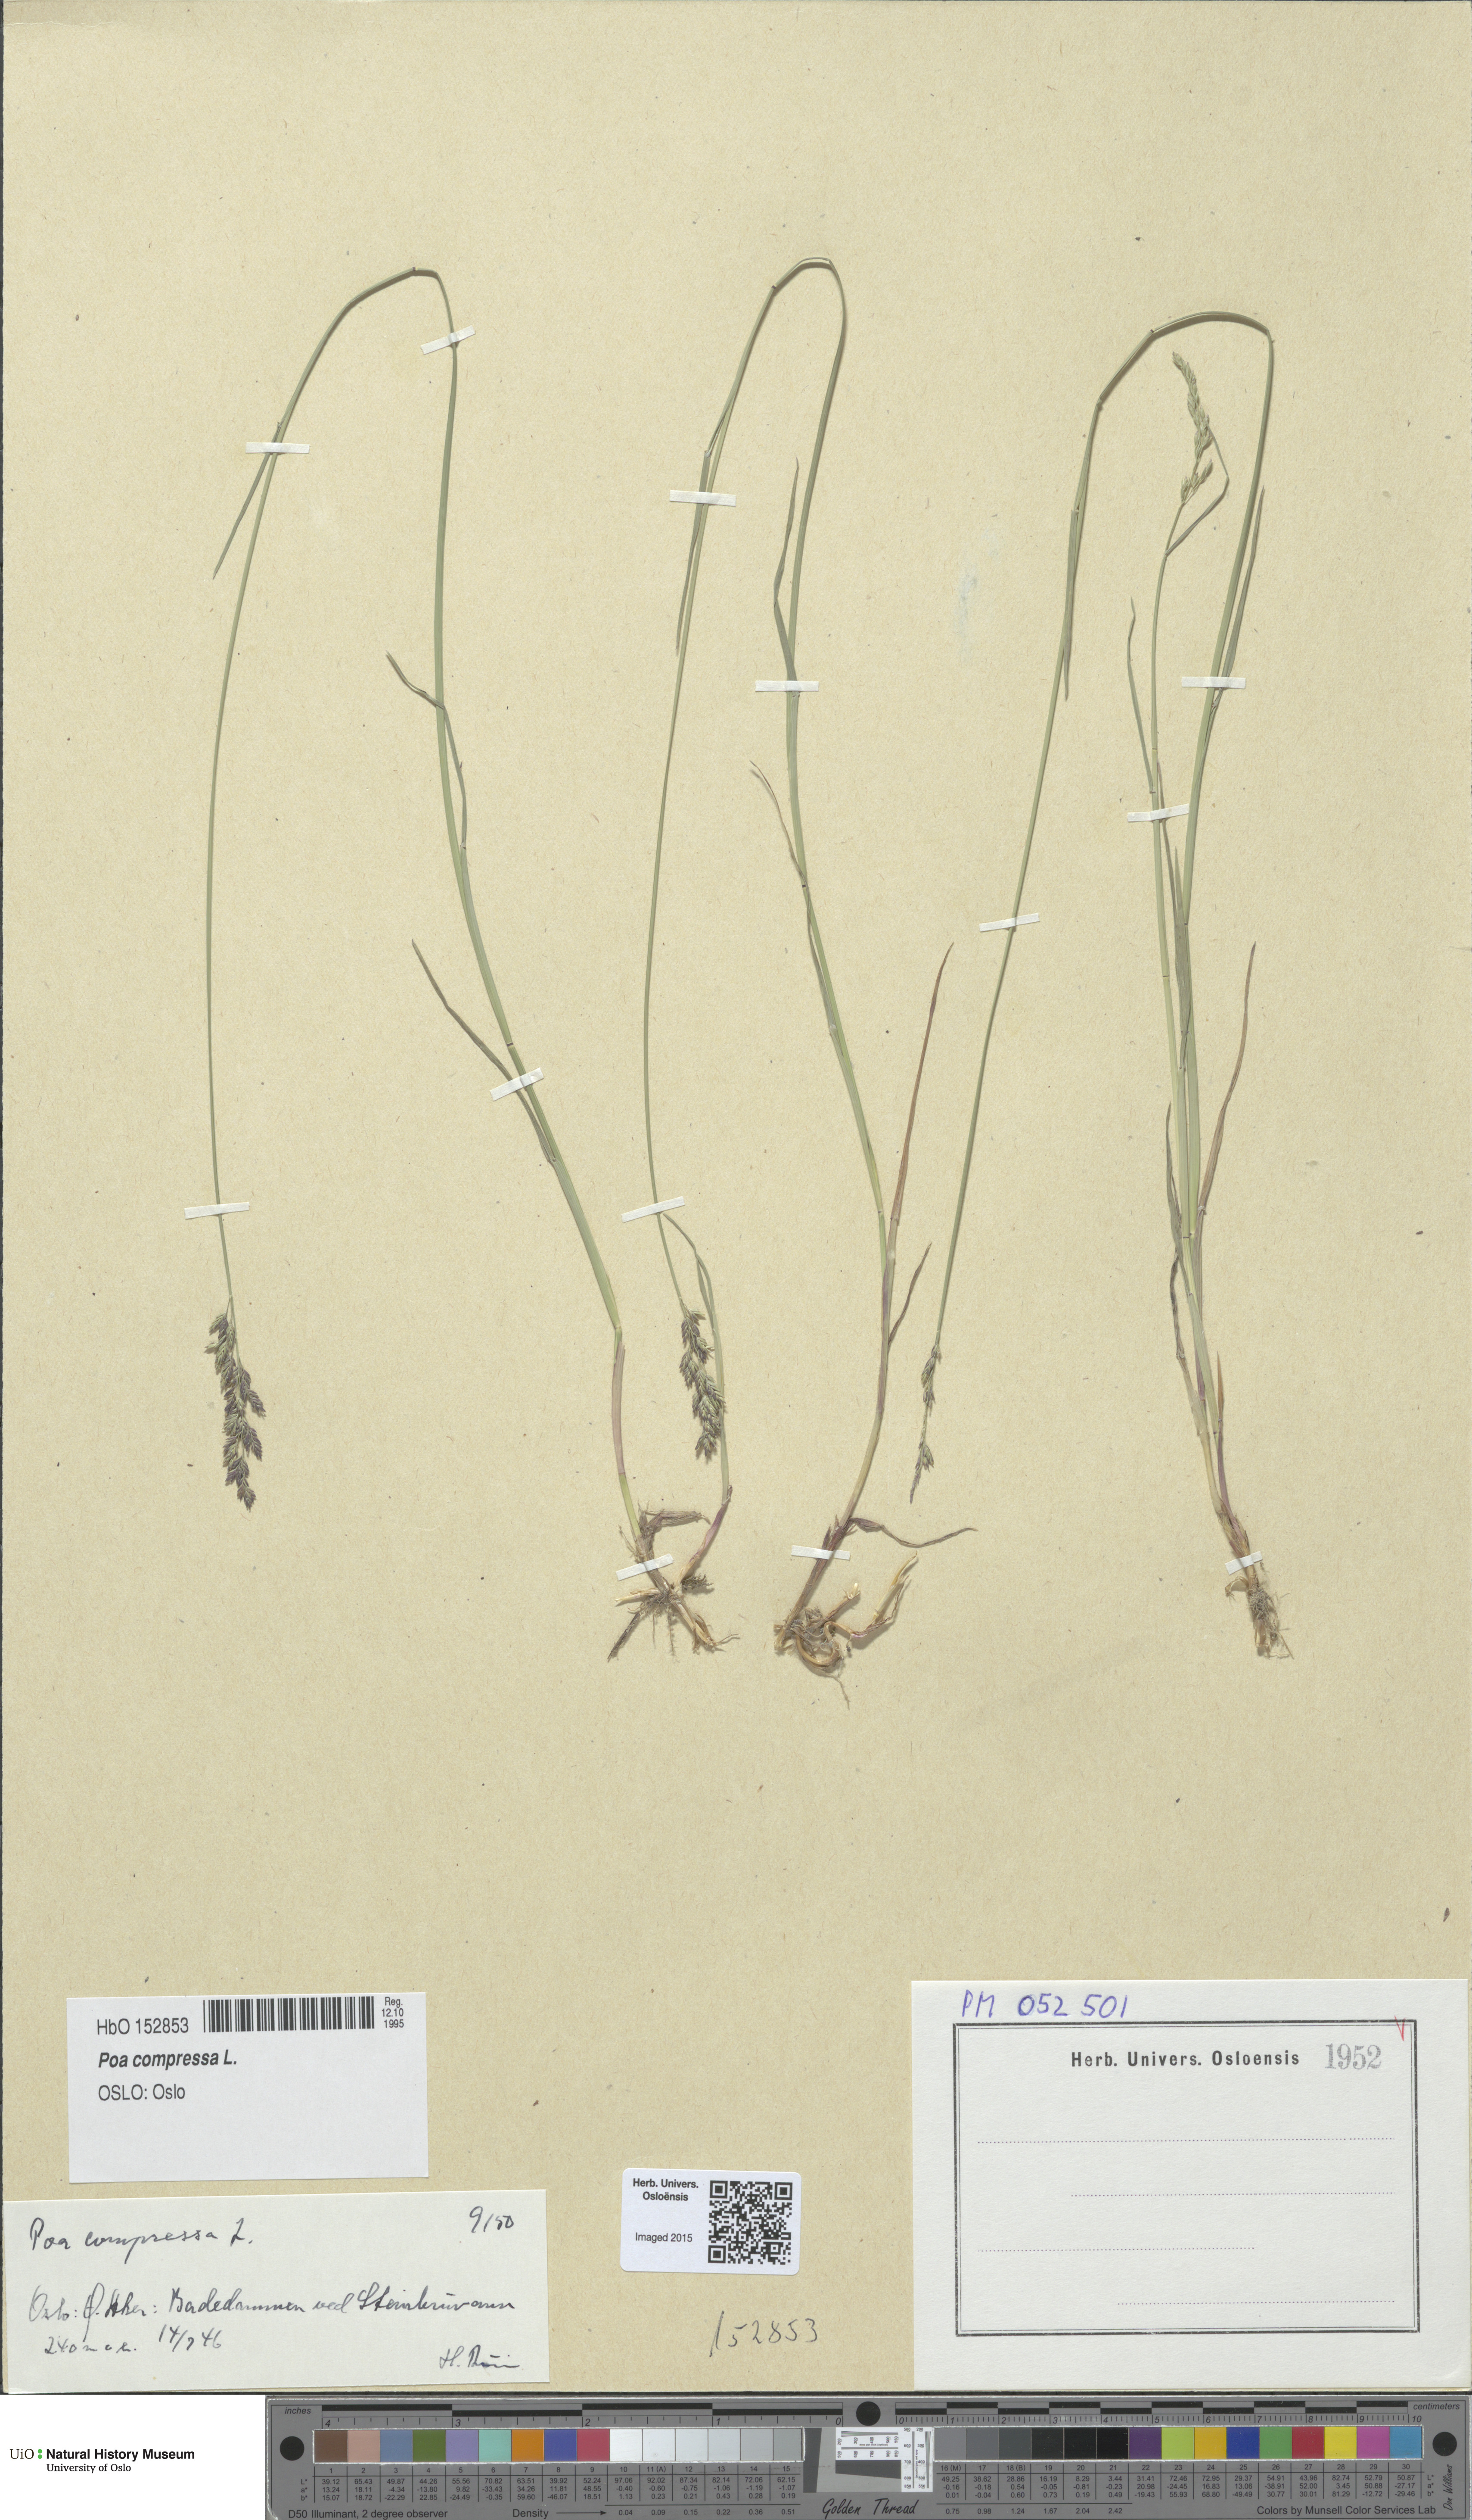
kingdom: Plantae
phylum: Tracheophyta
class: Liliopsida
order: Poales
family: Poaceae
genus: Poa
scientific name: Poa compressa
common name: Canada bluegrass
